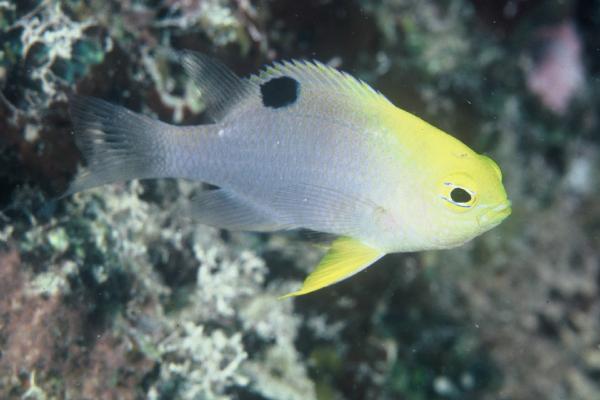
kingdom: Animalia
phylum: Chordata
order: Perciformes
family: Pomacentridae
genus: Chrysiptera
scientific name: Chrysiptera talboti
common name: Talbot's demoiselle
